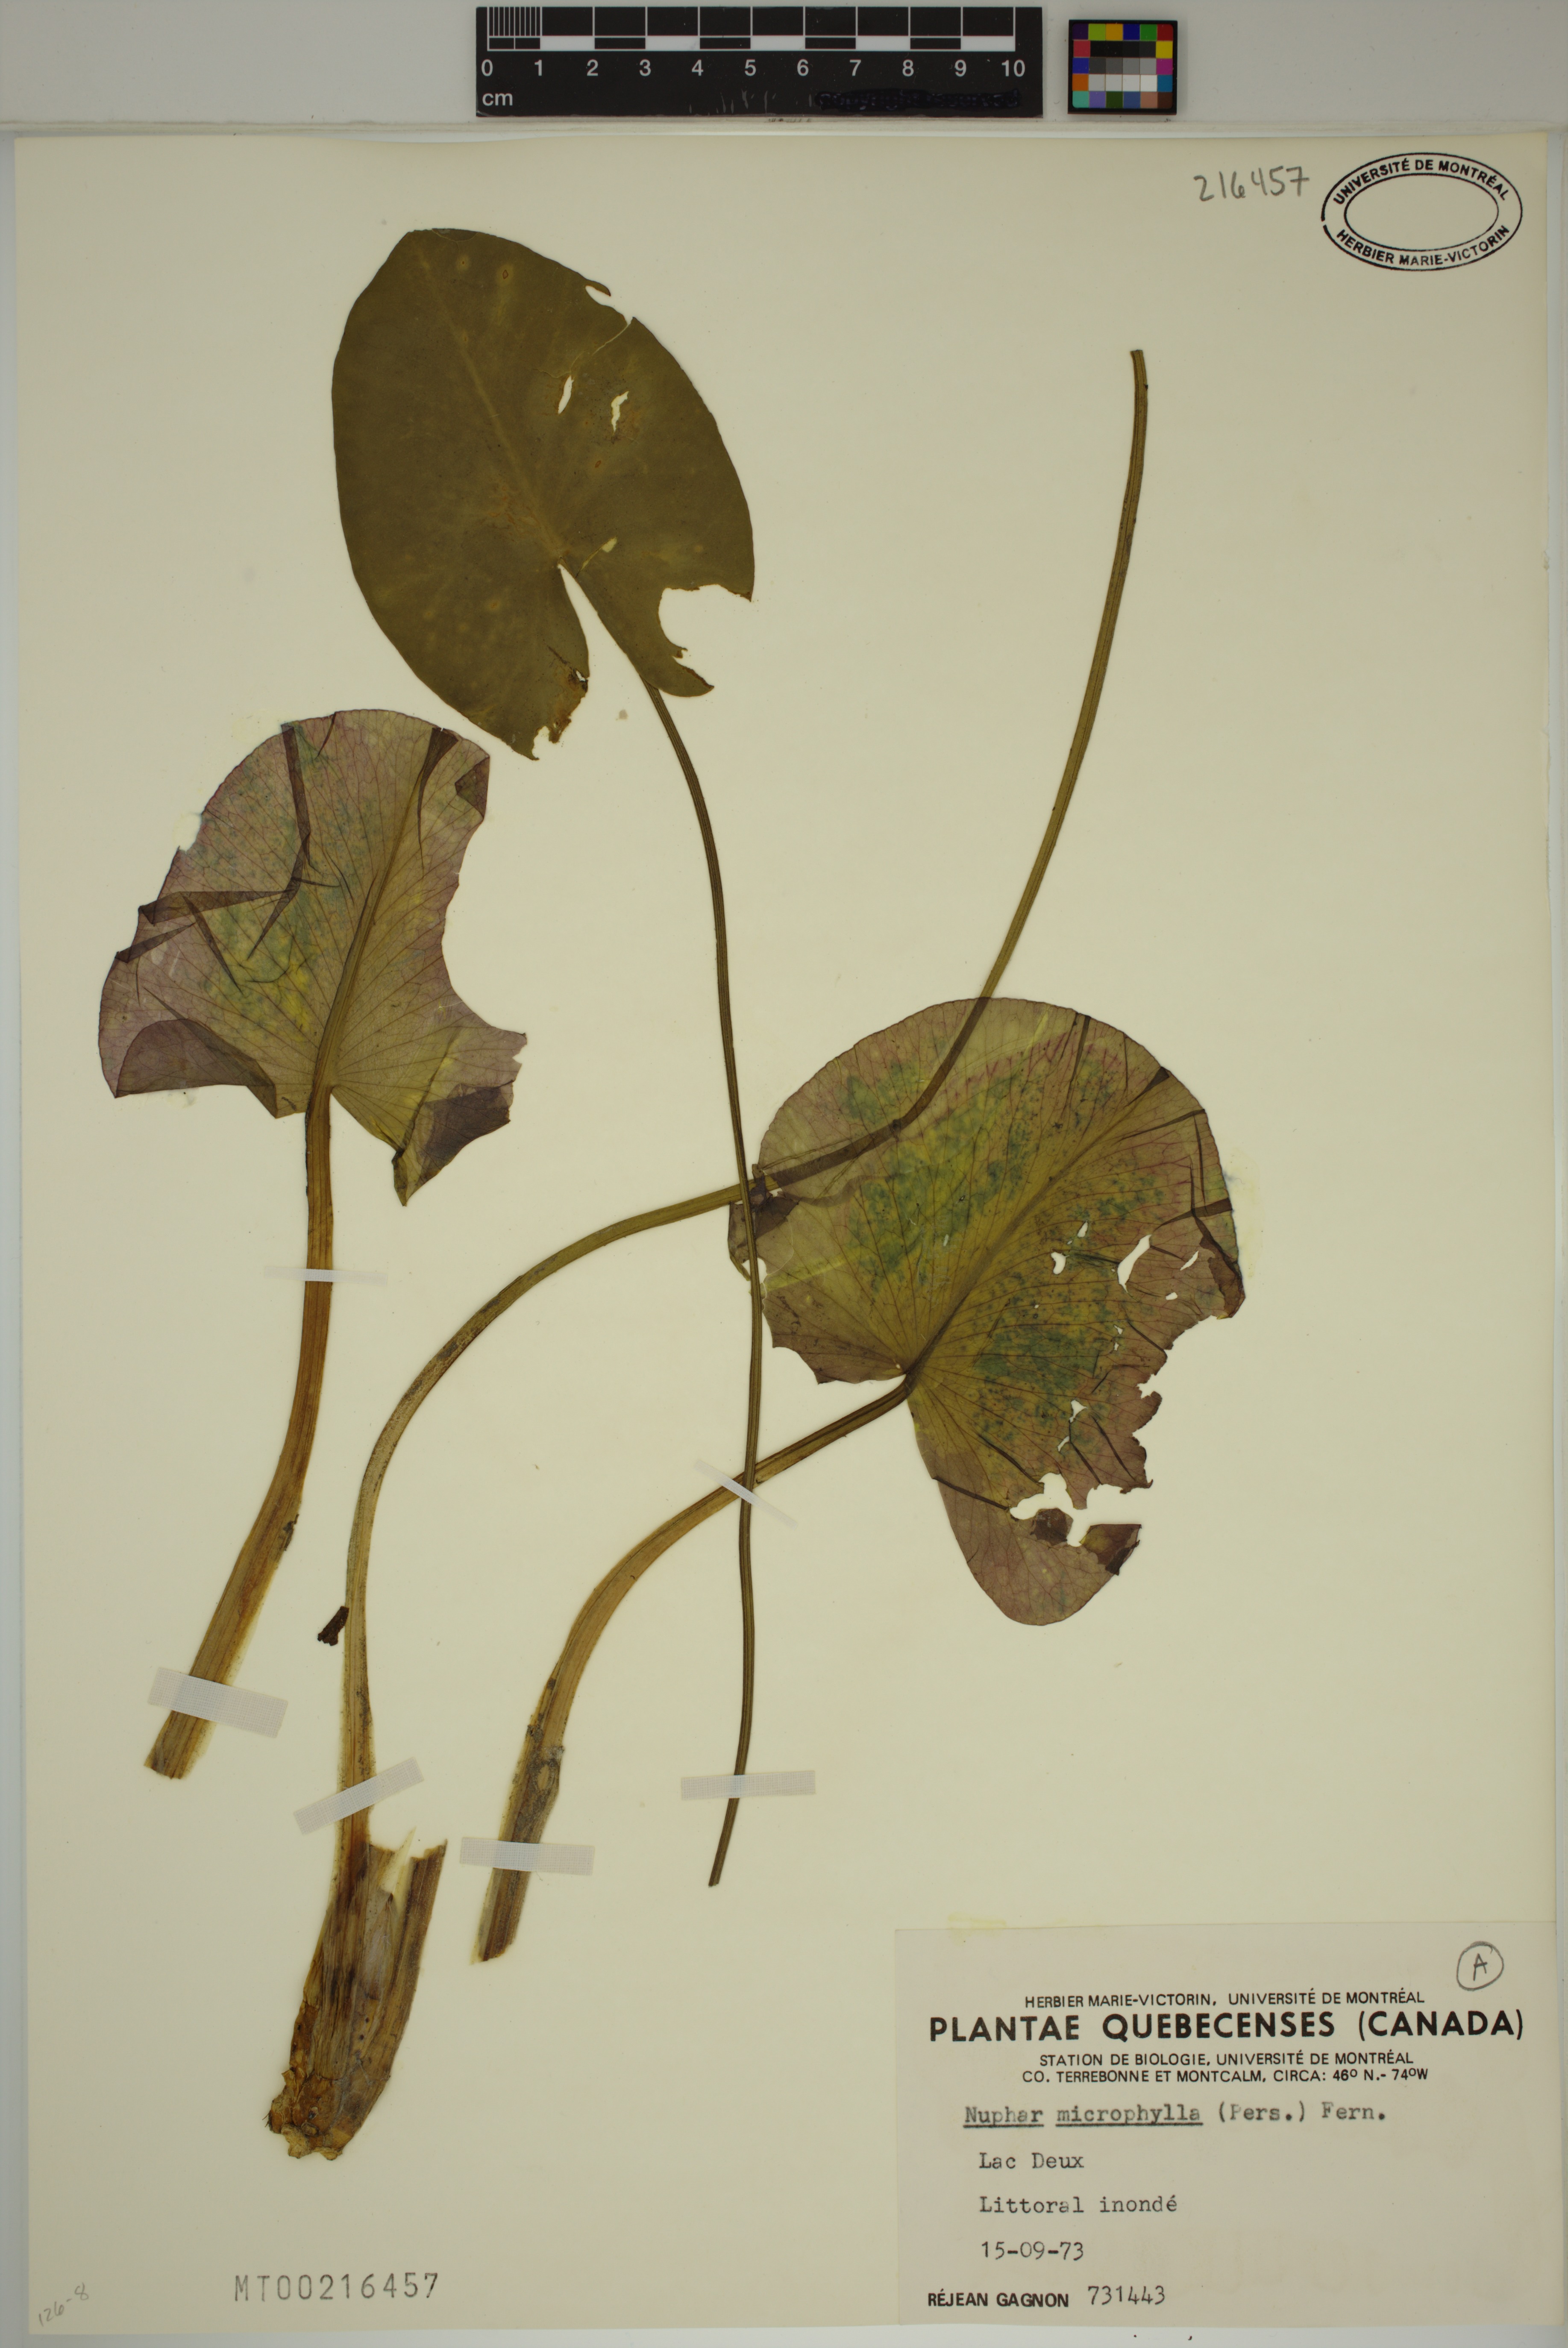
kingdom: Plantae
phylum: Tracheophyta
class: Magnoliopsida
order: Nymphaeales
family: Nymphaeaceae
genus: Nuphar
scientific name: Nuphar microphylla
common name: Small pond-lily
